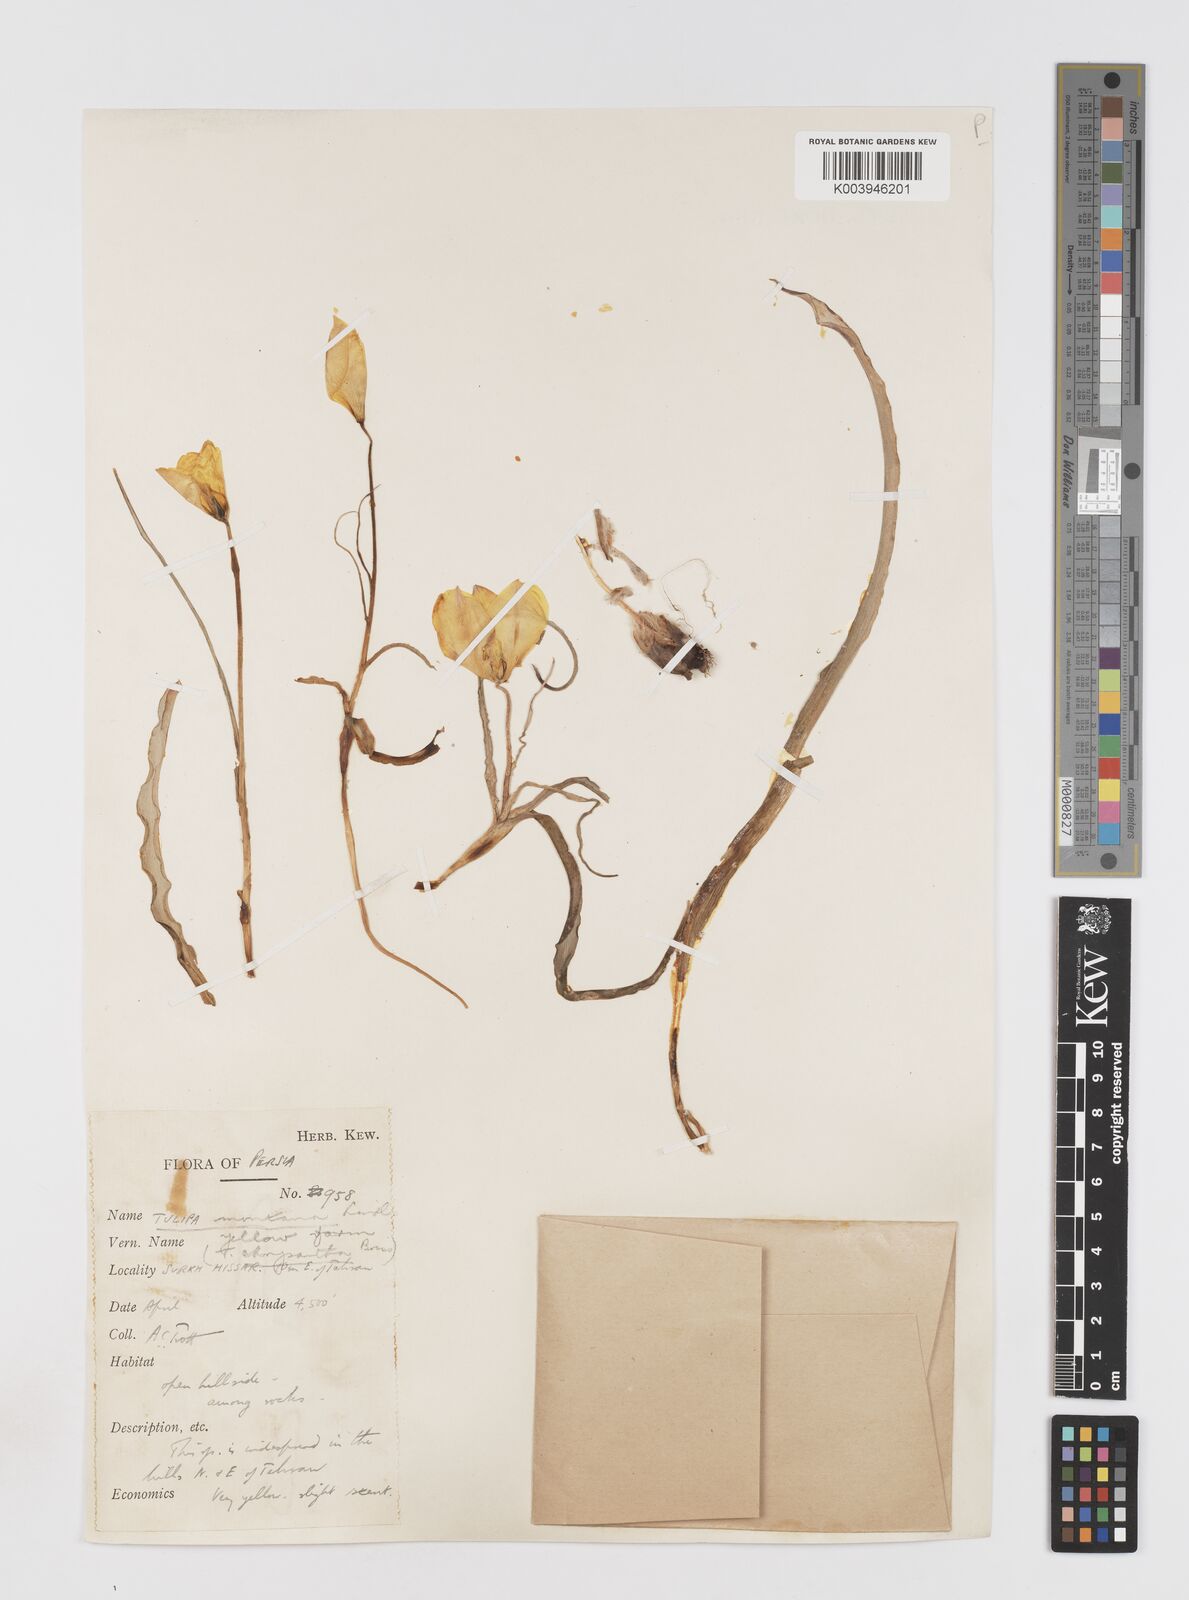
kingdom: Plantae
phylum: Tracheophyta
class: Liliopsida
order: Liliales
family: Liliaceae
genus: Tulipa
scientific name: Tulipa montana
